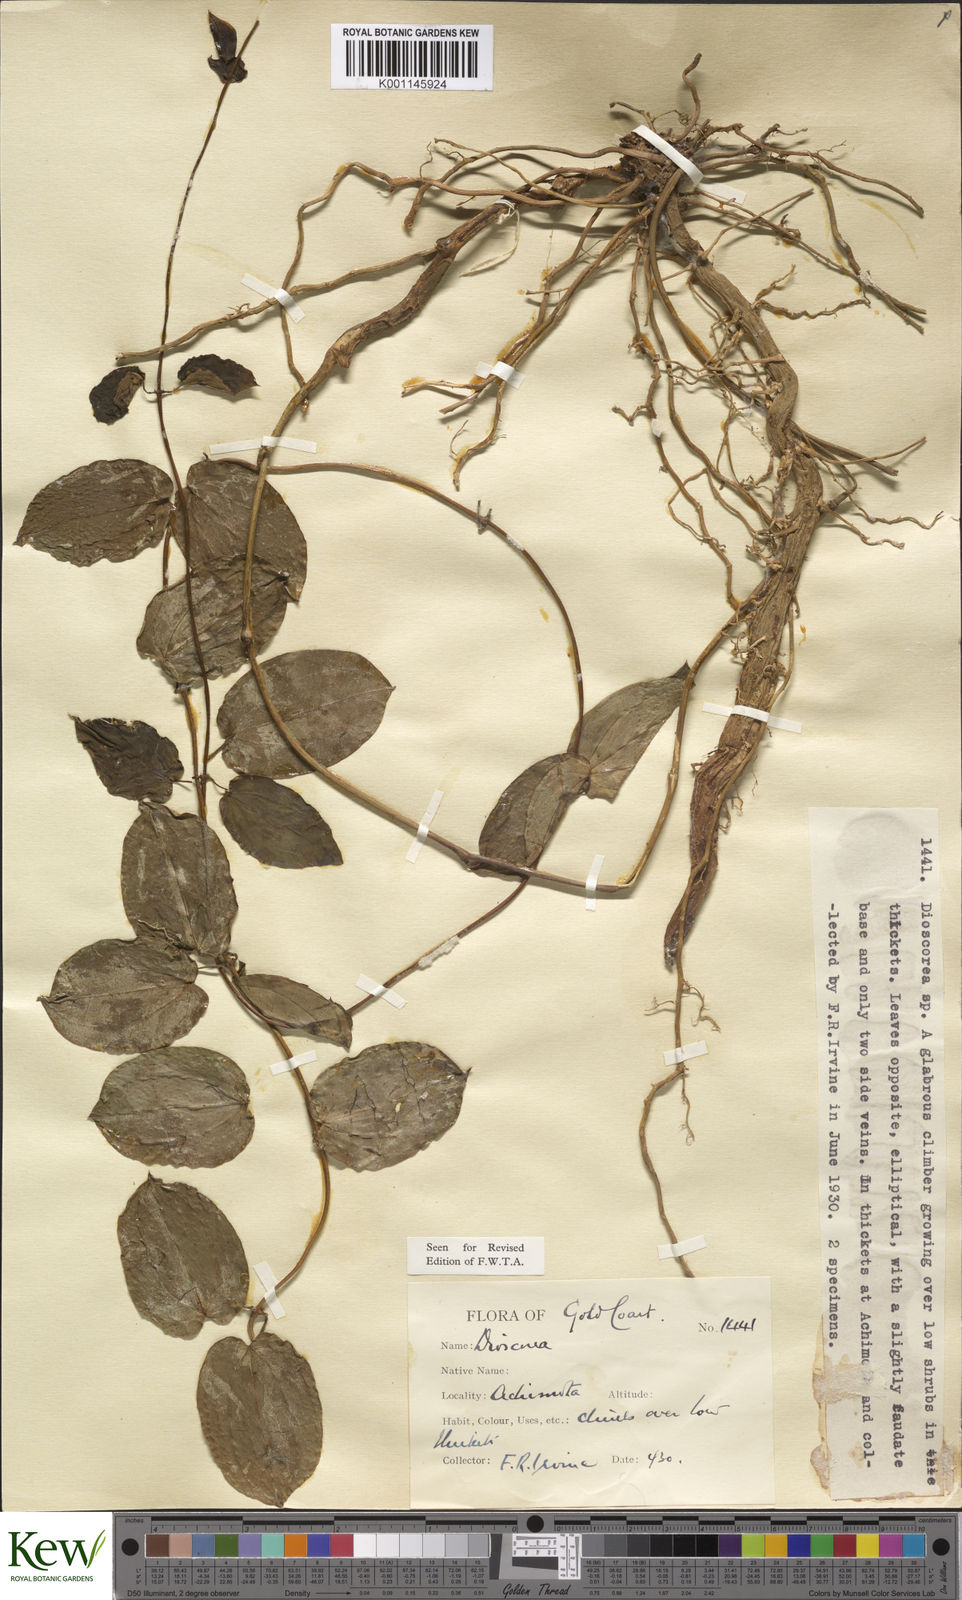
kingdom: Plantae
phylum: Tracheophyta
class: Liliopsida
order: Dioscoreales
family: Dioscoreaceae
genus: Dioscorea
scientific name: Dioscorea togoensis
